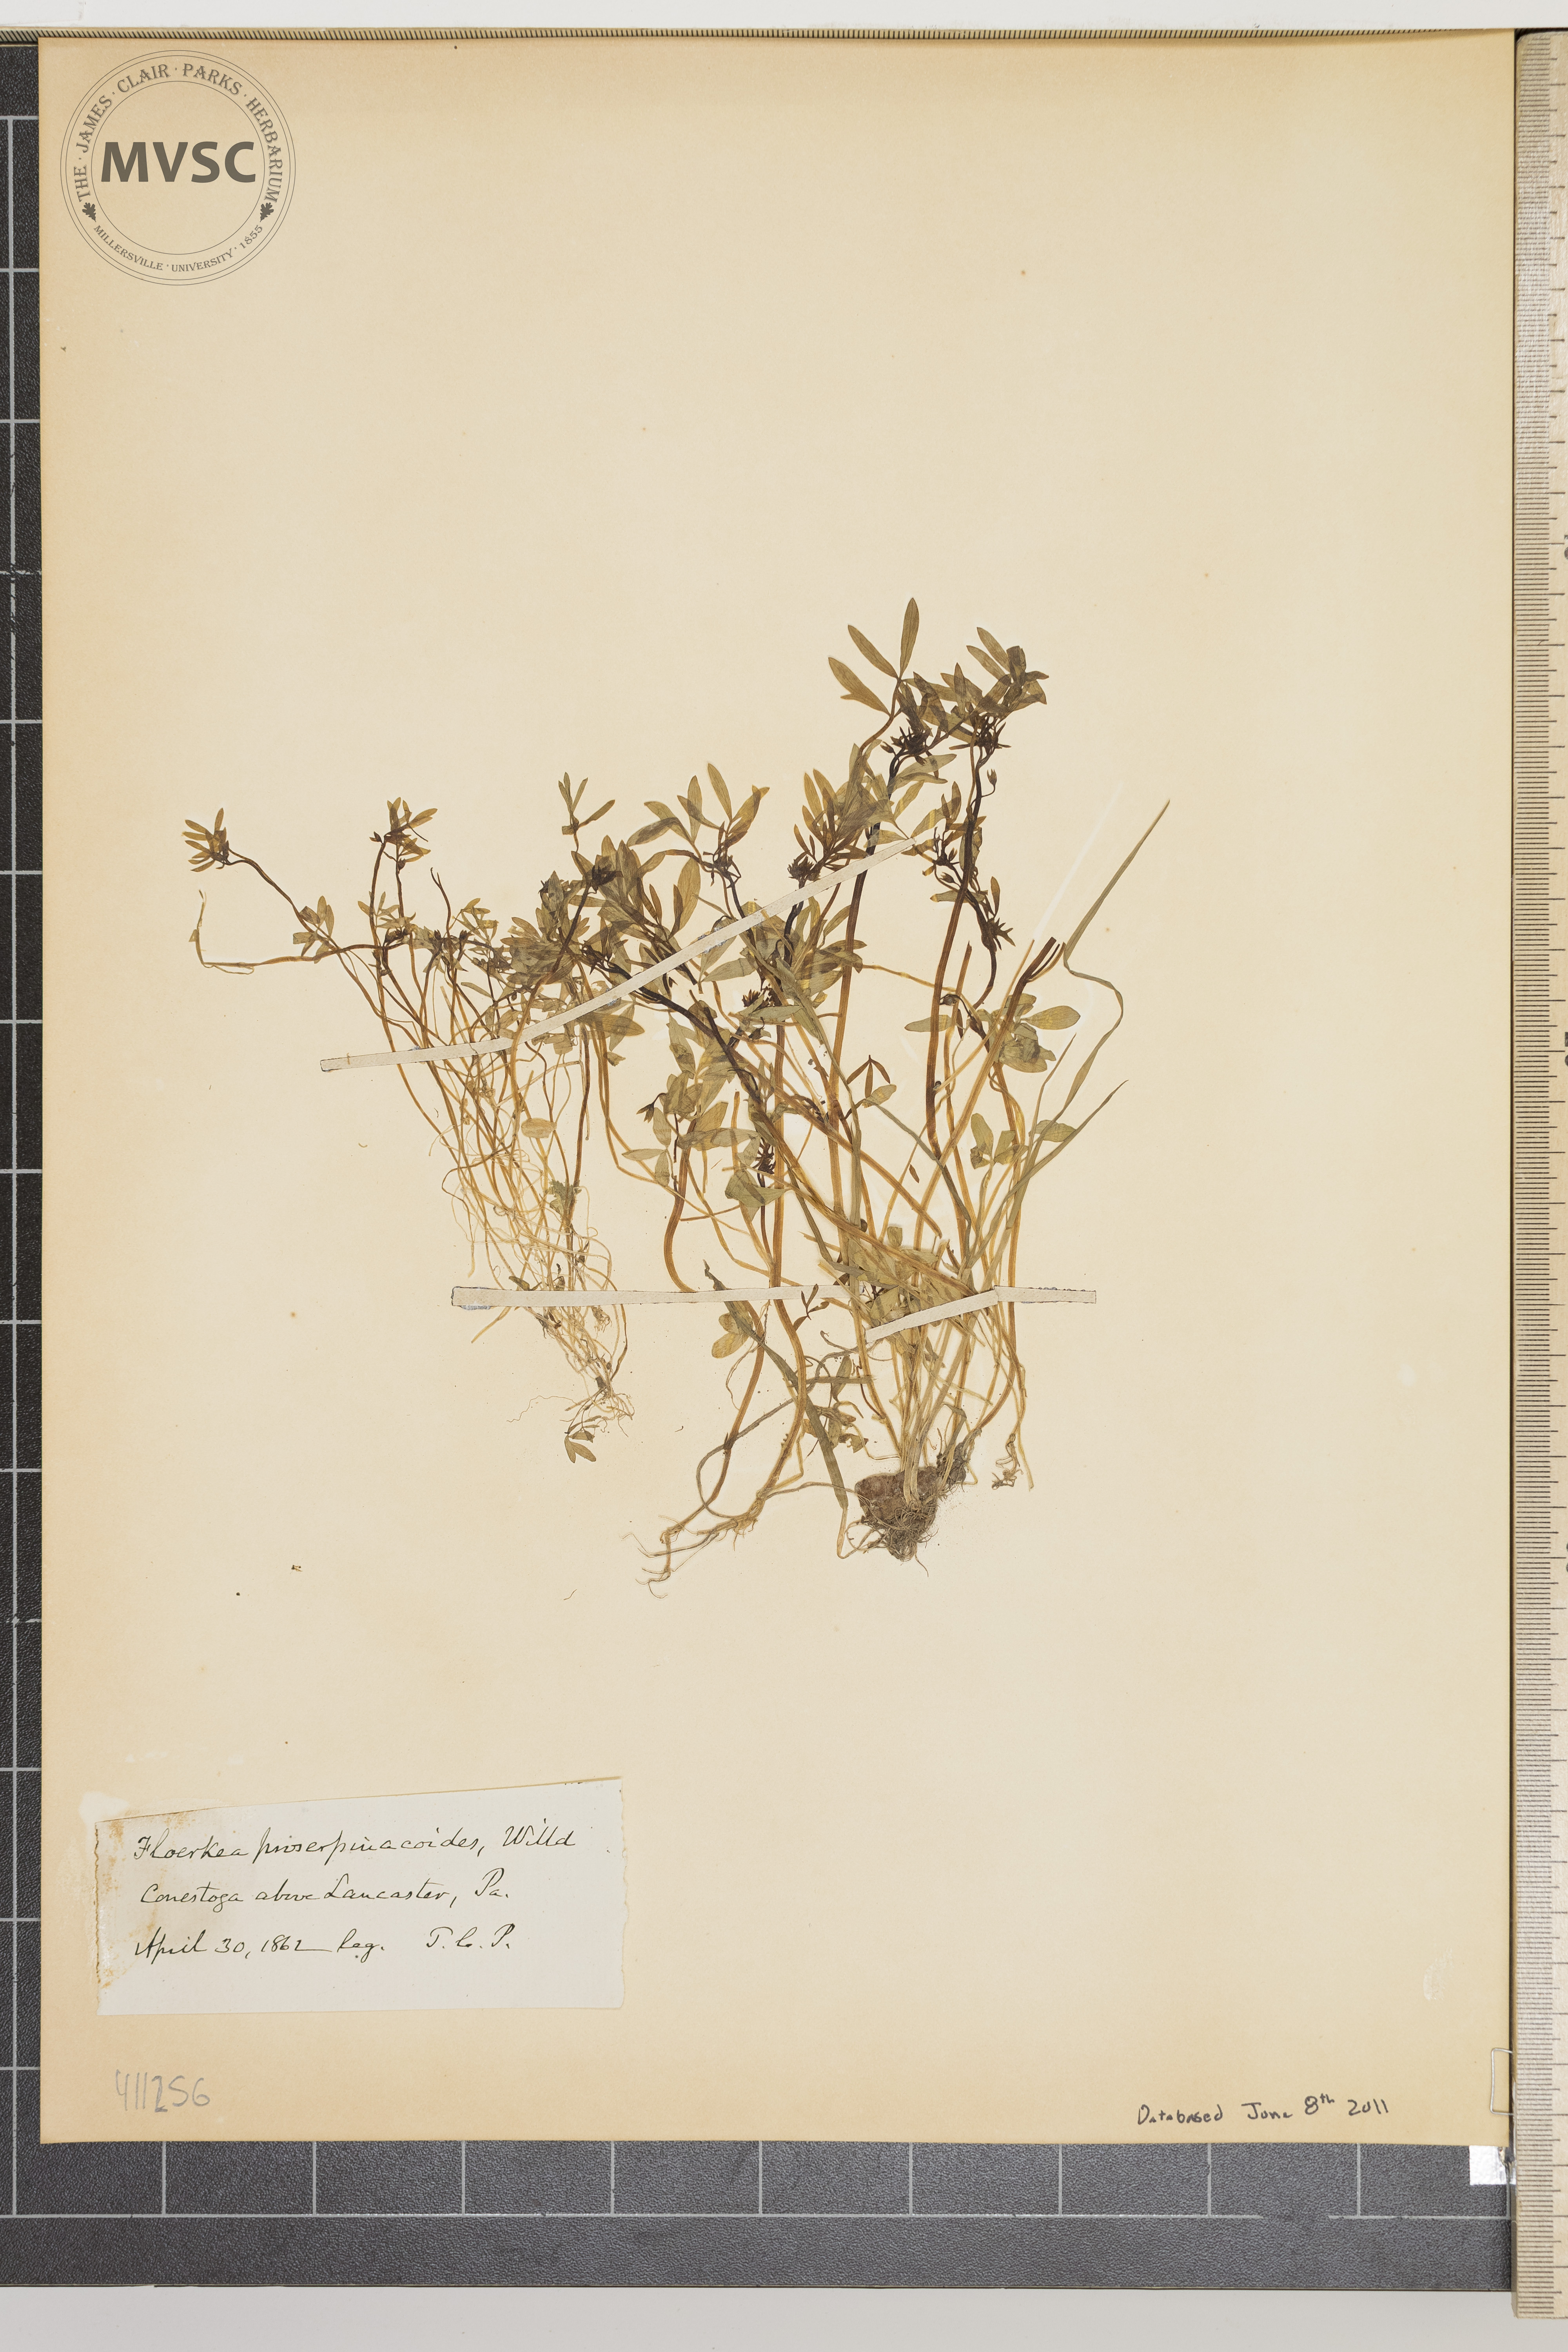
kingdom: Plantae
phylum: Tracheophyta
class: Magnoliopsida
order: Brassicales
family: Limnanthaceae
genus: Floerkea
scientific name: Floerkea proserpinacoides
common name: False mermaid
